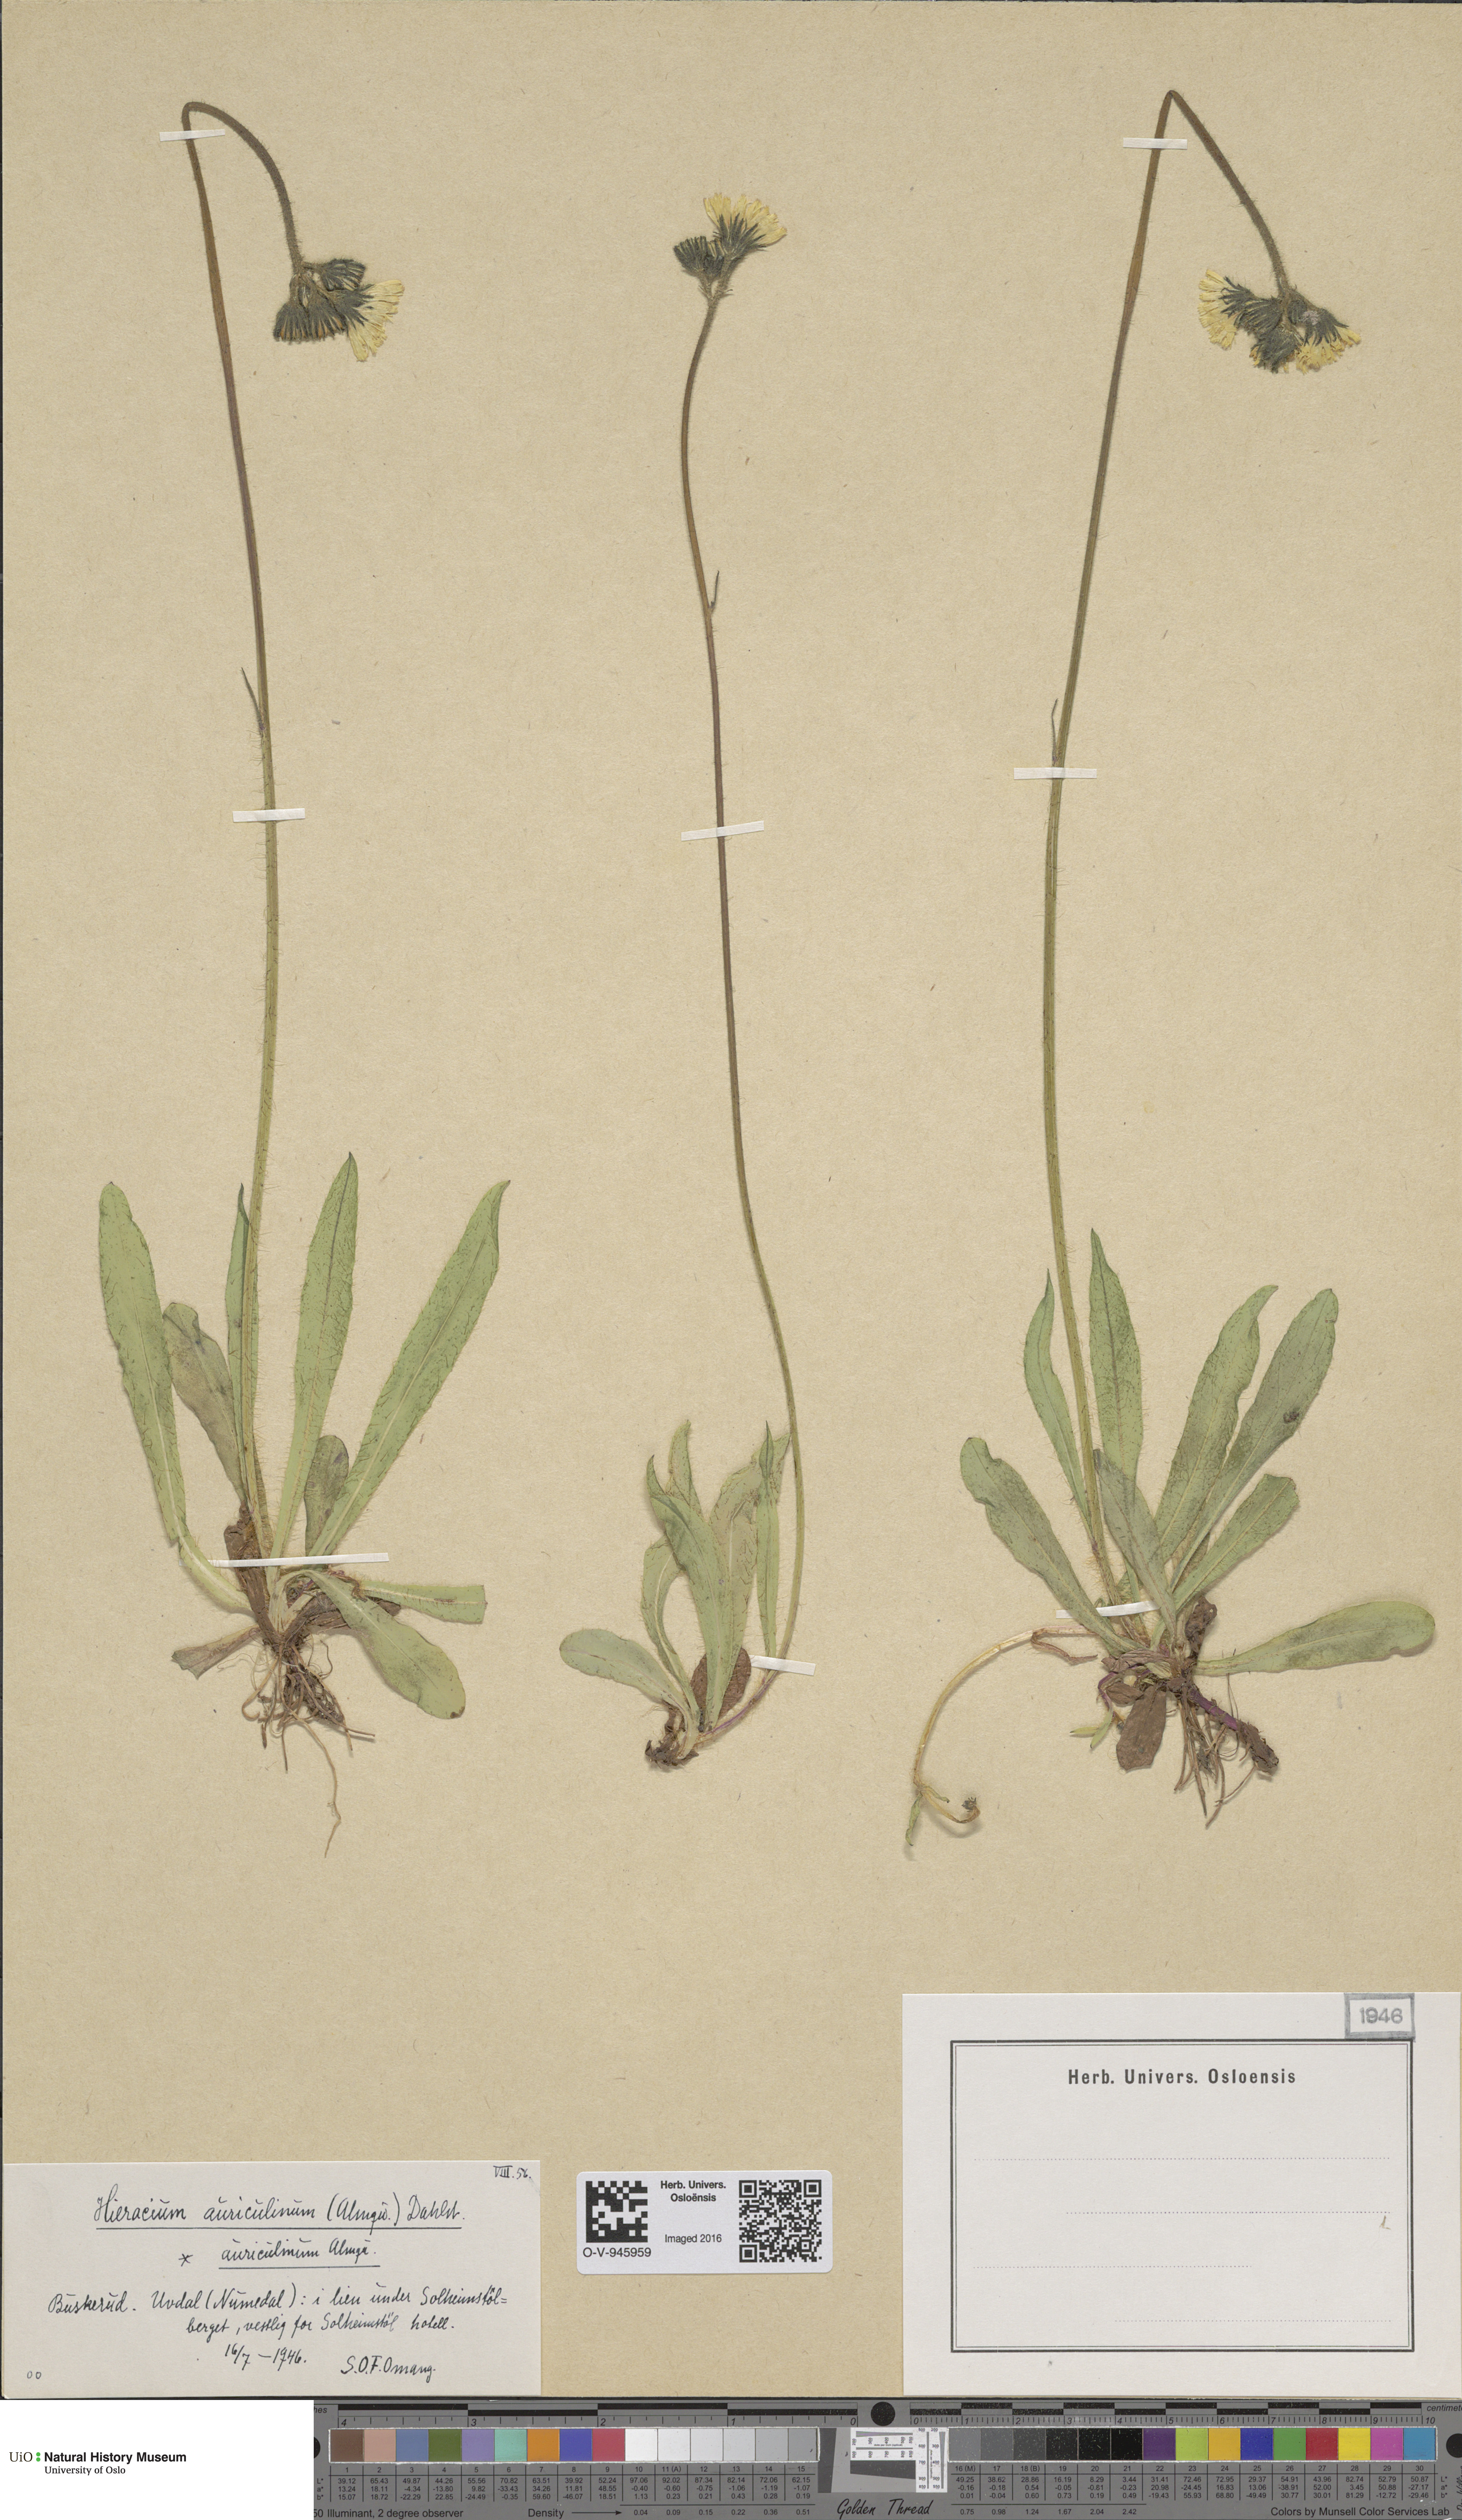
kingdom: Plantae
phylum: Tracheophyta
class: Magnoliopsida
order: Asterales
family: Asteraceae
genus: Pilosella
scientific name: Pilosella dubia
